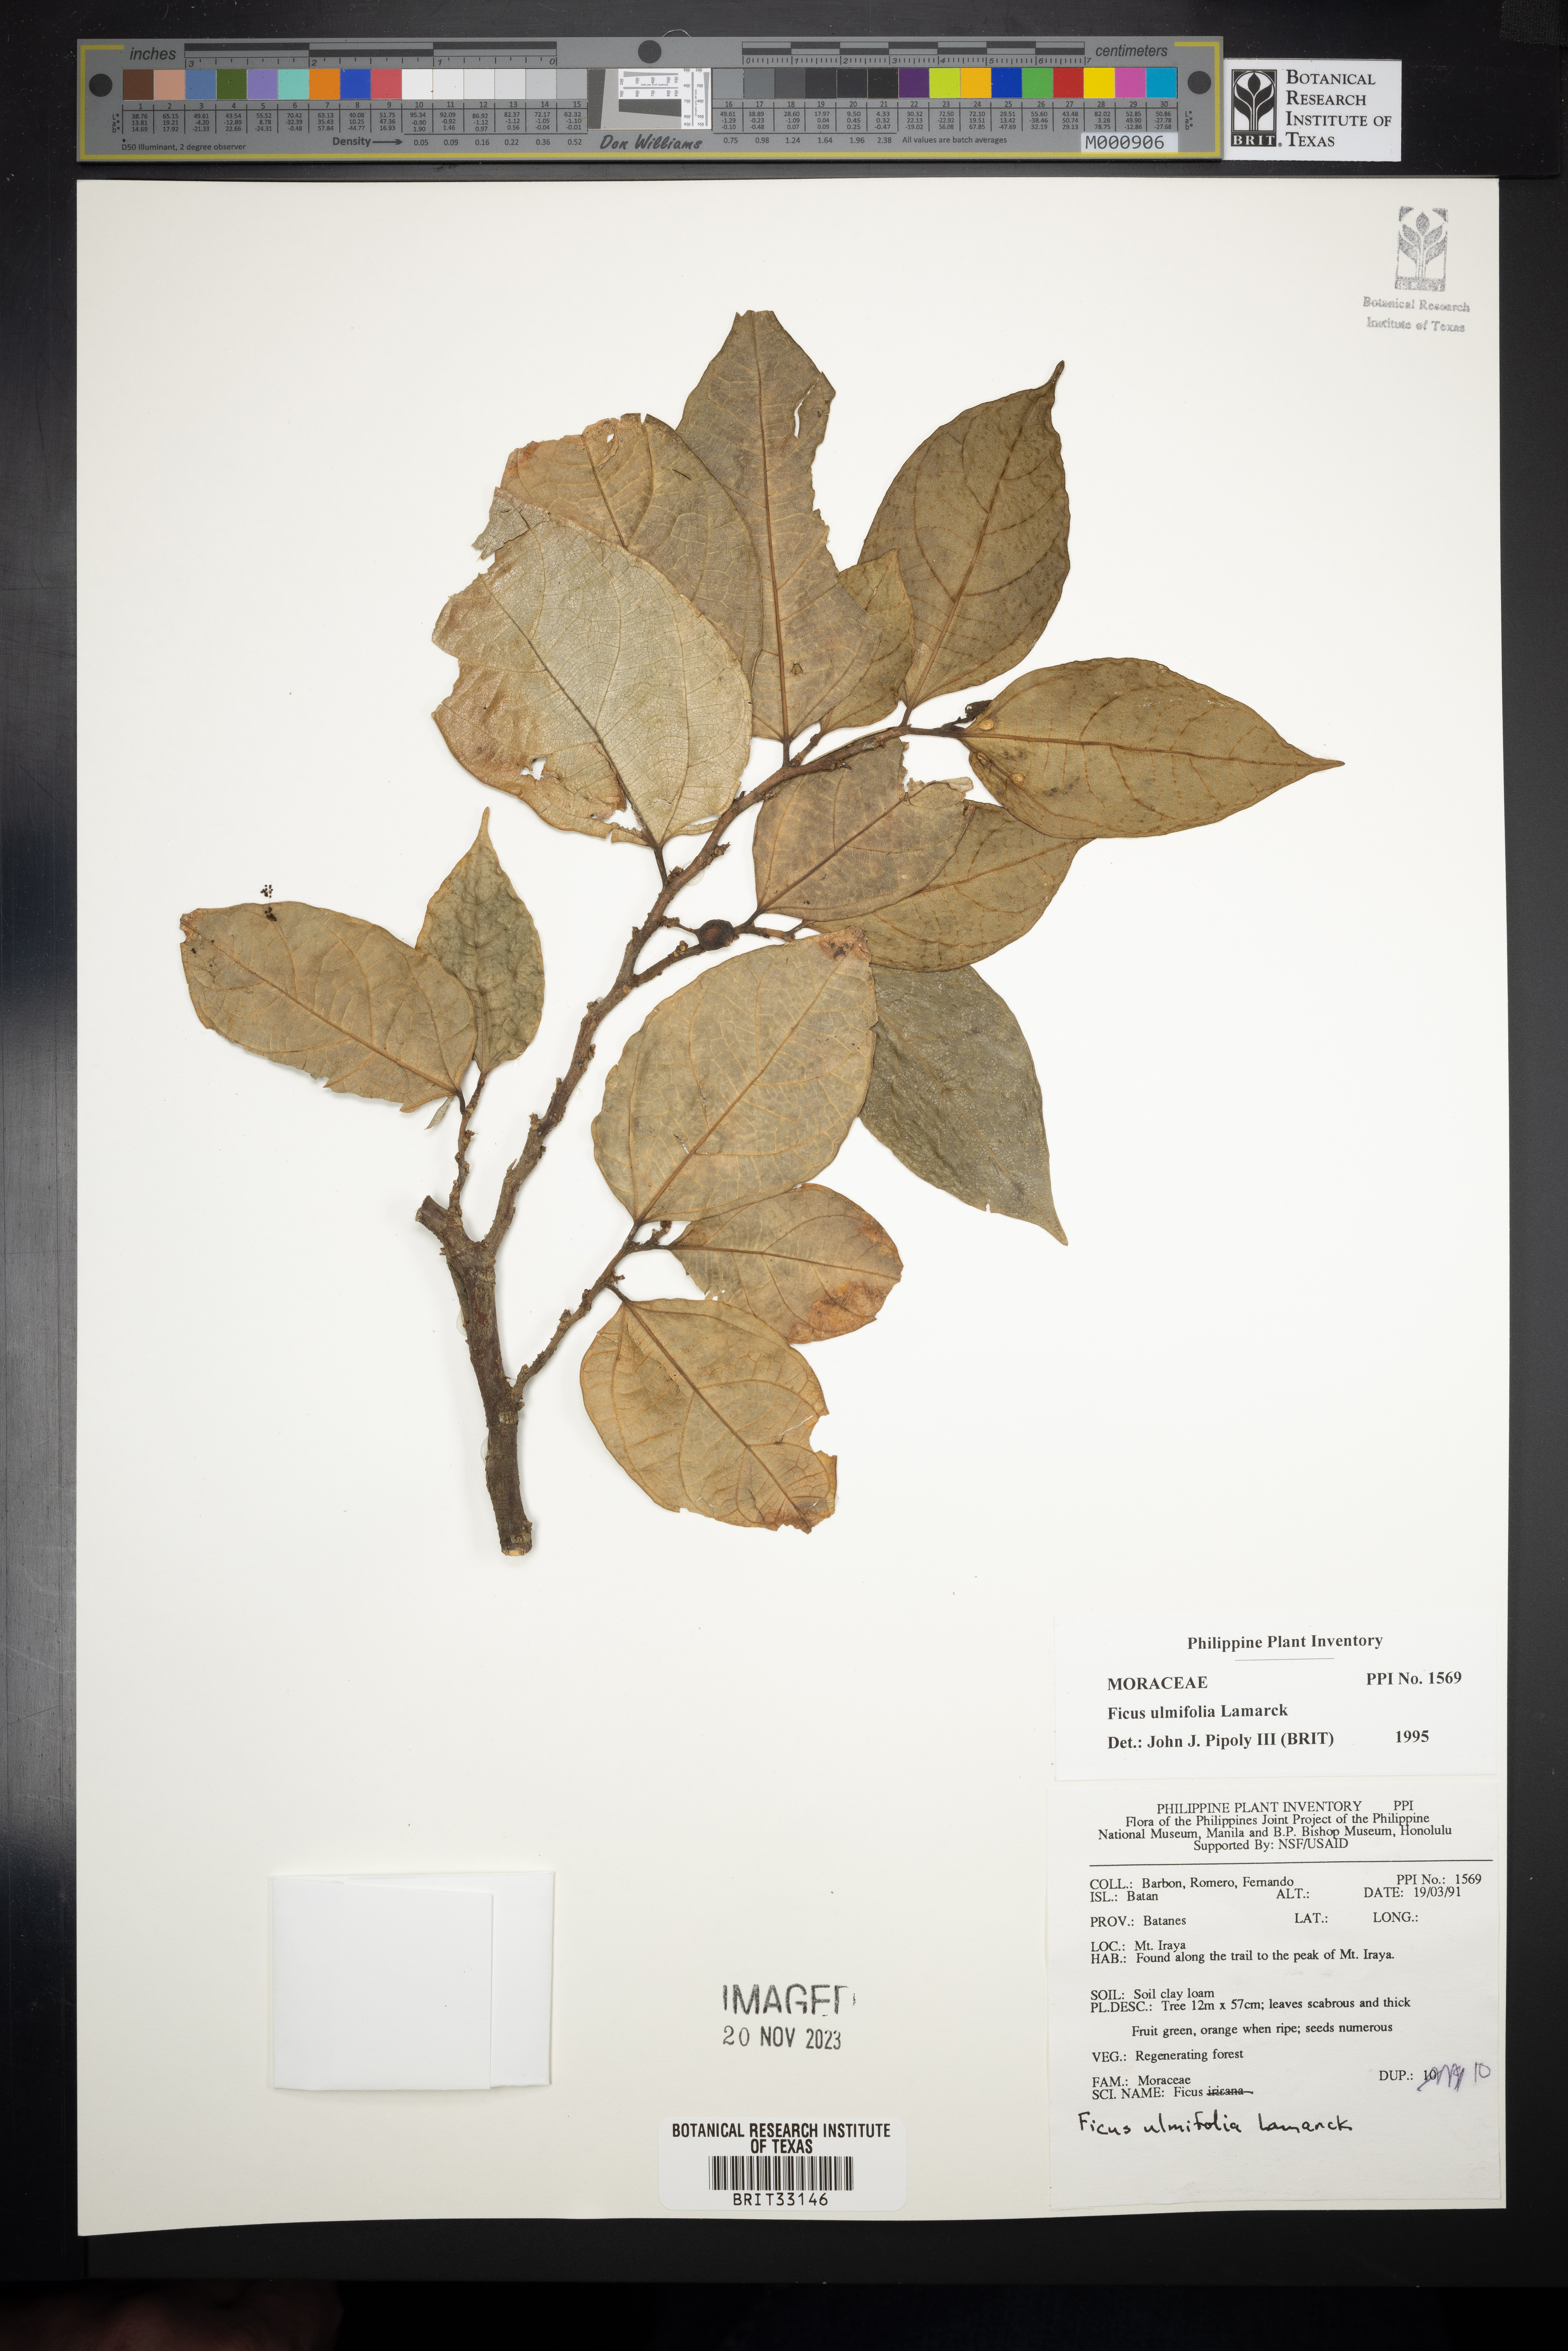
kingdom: Plantae
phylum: Tracheophyta
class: Magnoliopsida
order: Rosales
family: Moraceae
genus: Ficus
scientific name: Ficus ulmifolia
